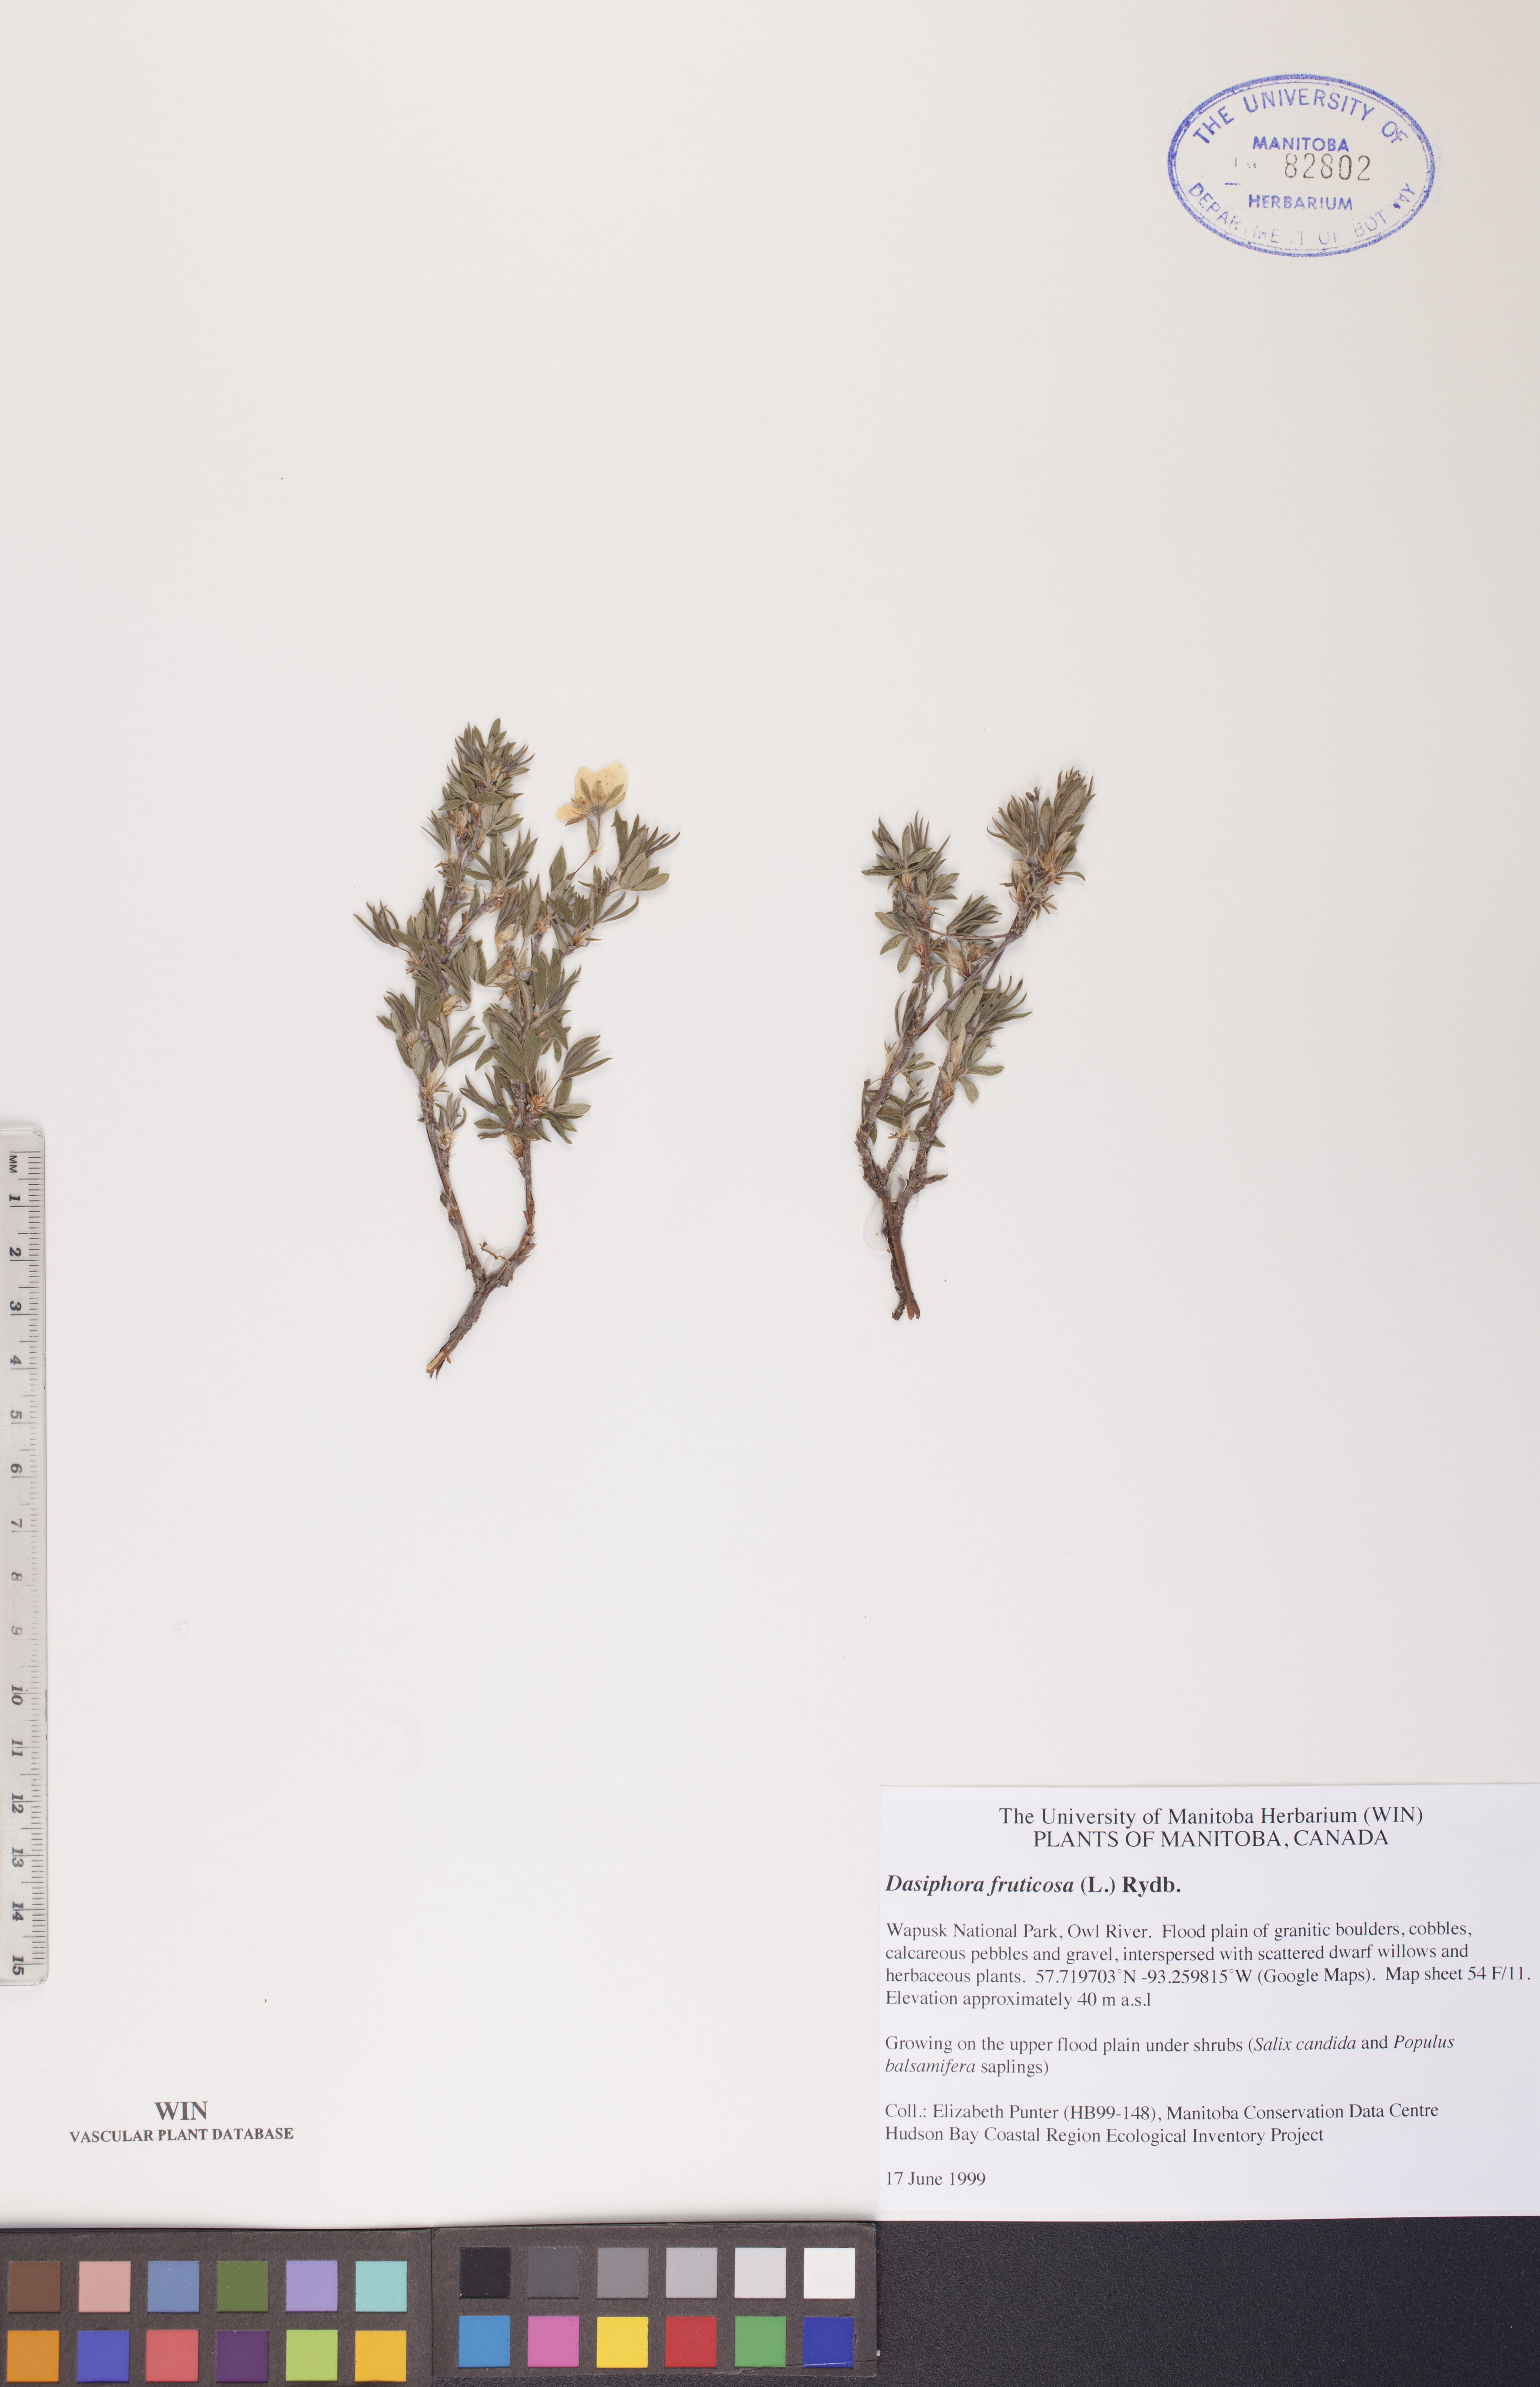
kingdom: Plantae
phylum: Tracheophyta
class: Magnoliopsida
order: Rosales
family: Rosaceae
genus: Dasiphora
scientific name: Dasiphora fruticosa
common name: Shrubby cinquefoil
